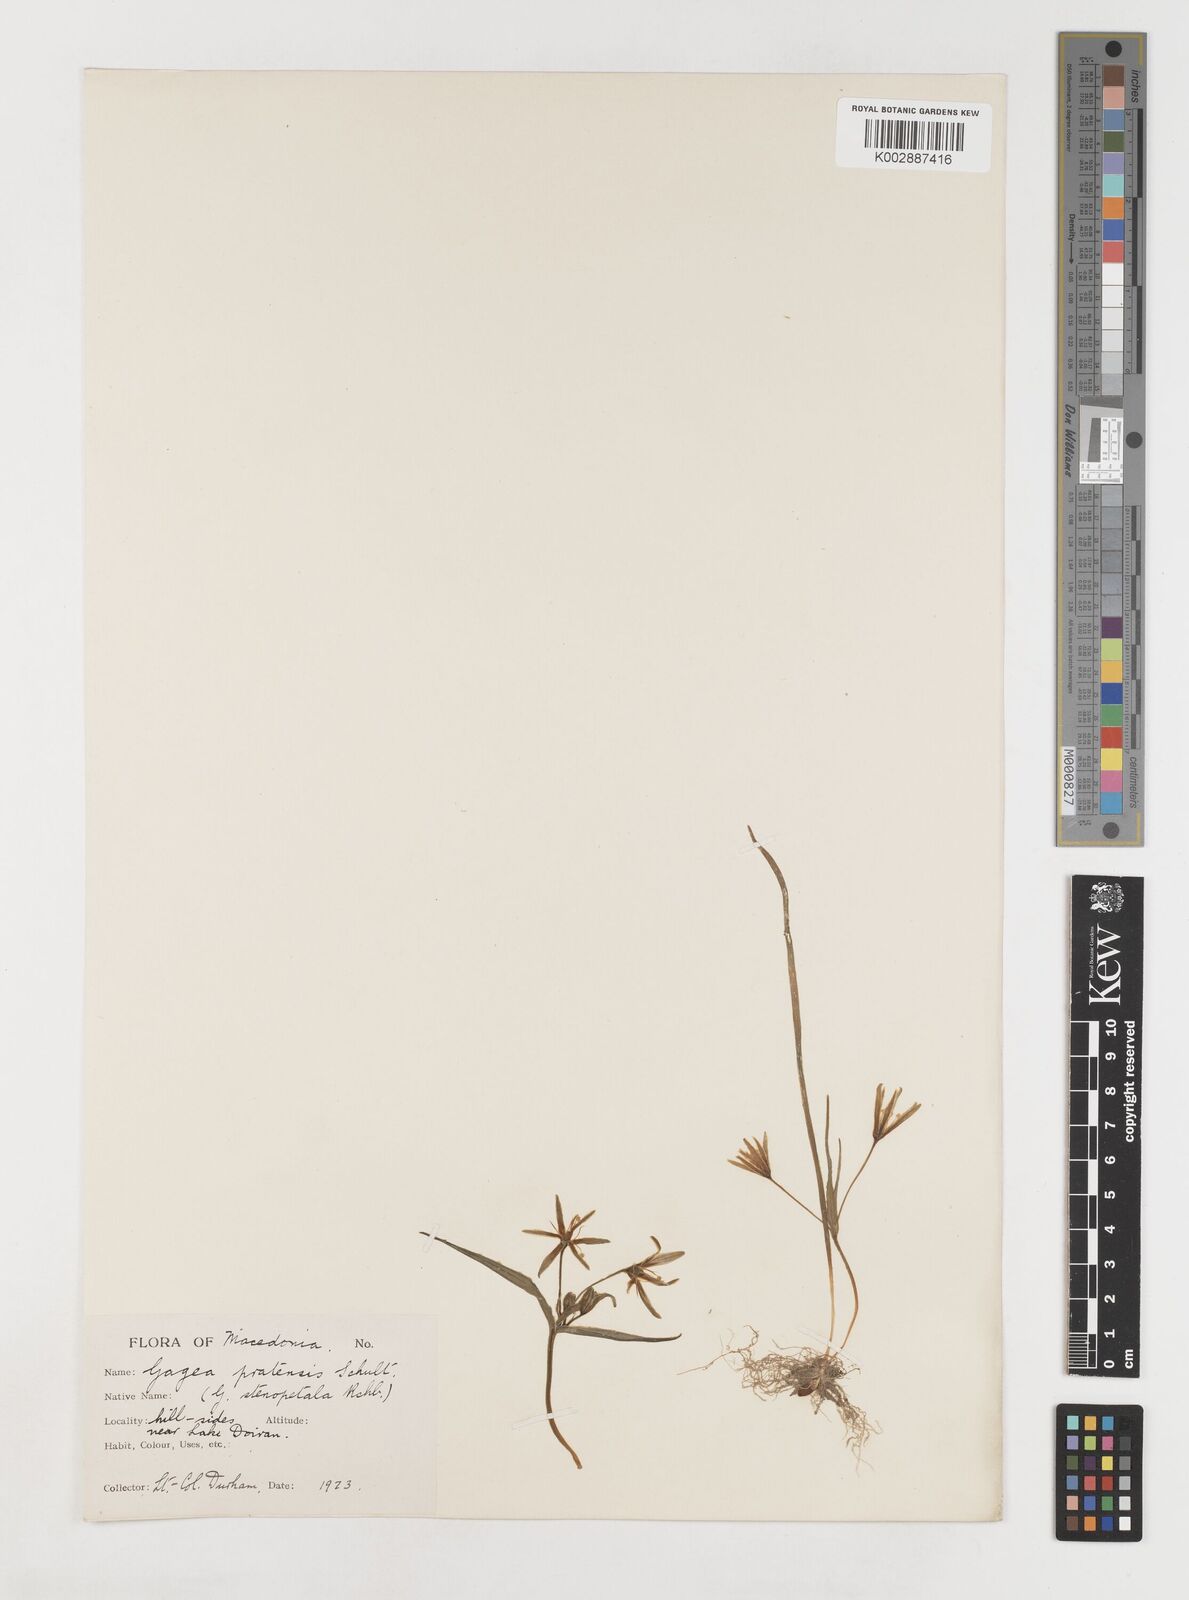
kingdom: Plantae
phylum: Tracheophyta
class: Liliopsida
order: Liliales
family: Liliaceae
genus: Gagea
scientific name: Gagea pratensis
